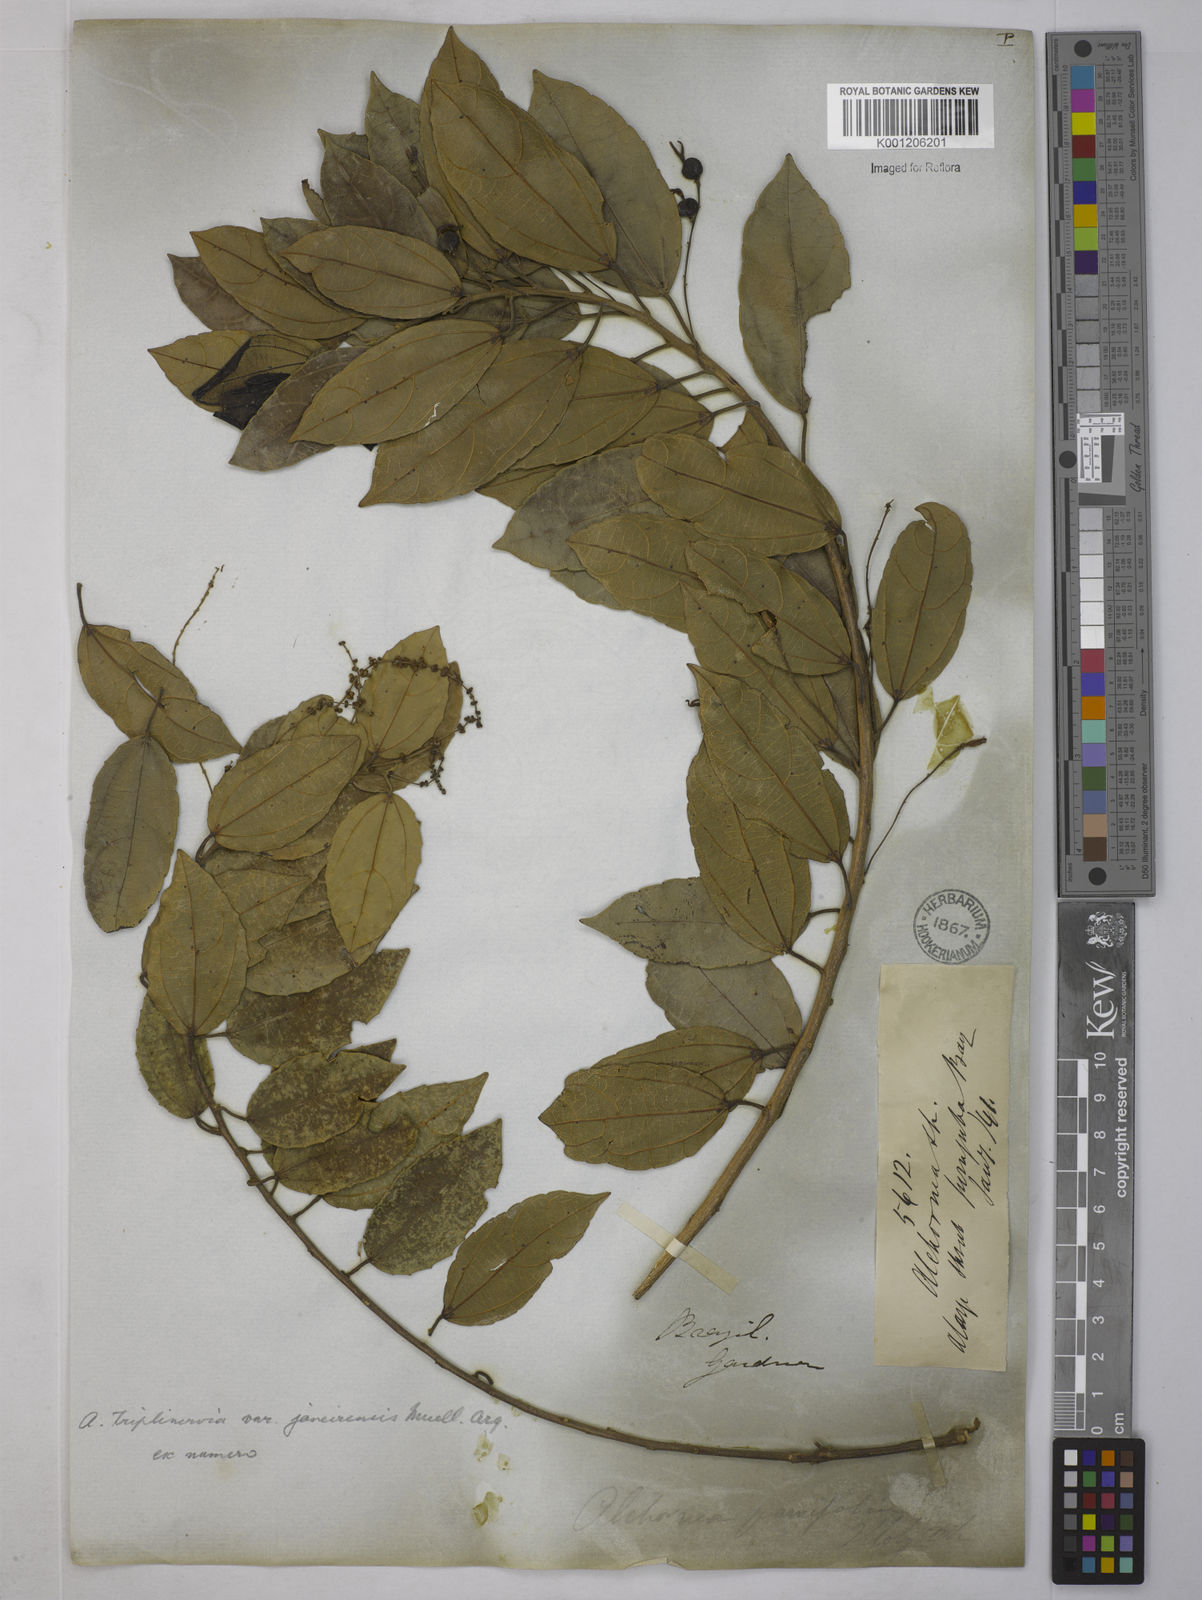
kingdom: Plantae
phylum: Tracheophyta
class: Magnoliopsida
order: Malpighiales
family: Euphorbiaceae
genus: Alchornea
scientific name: Alchornea
